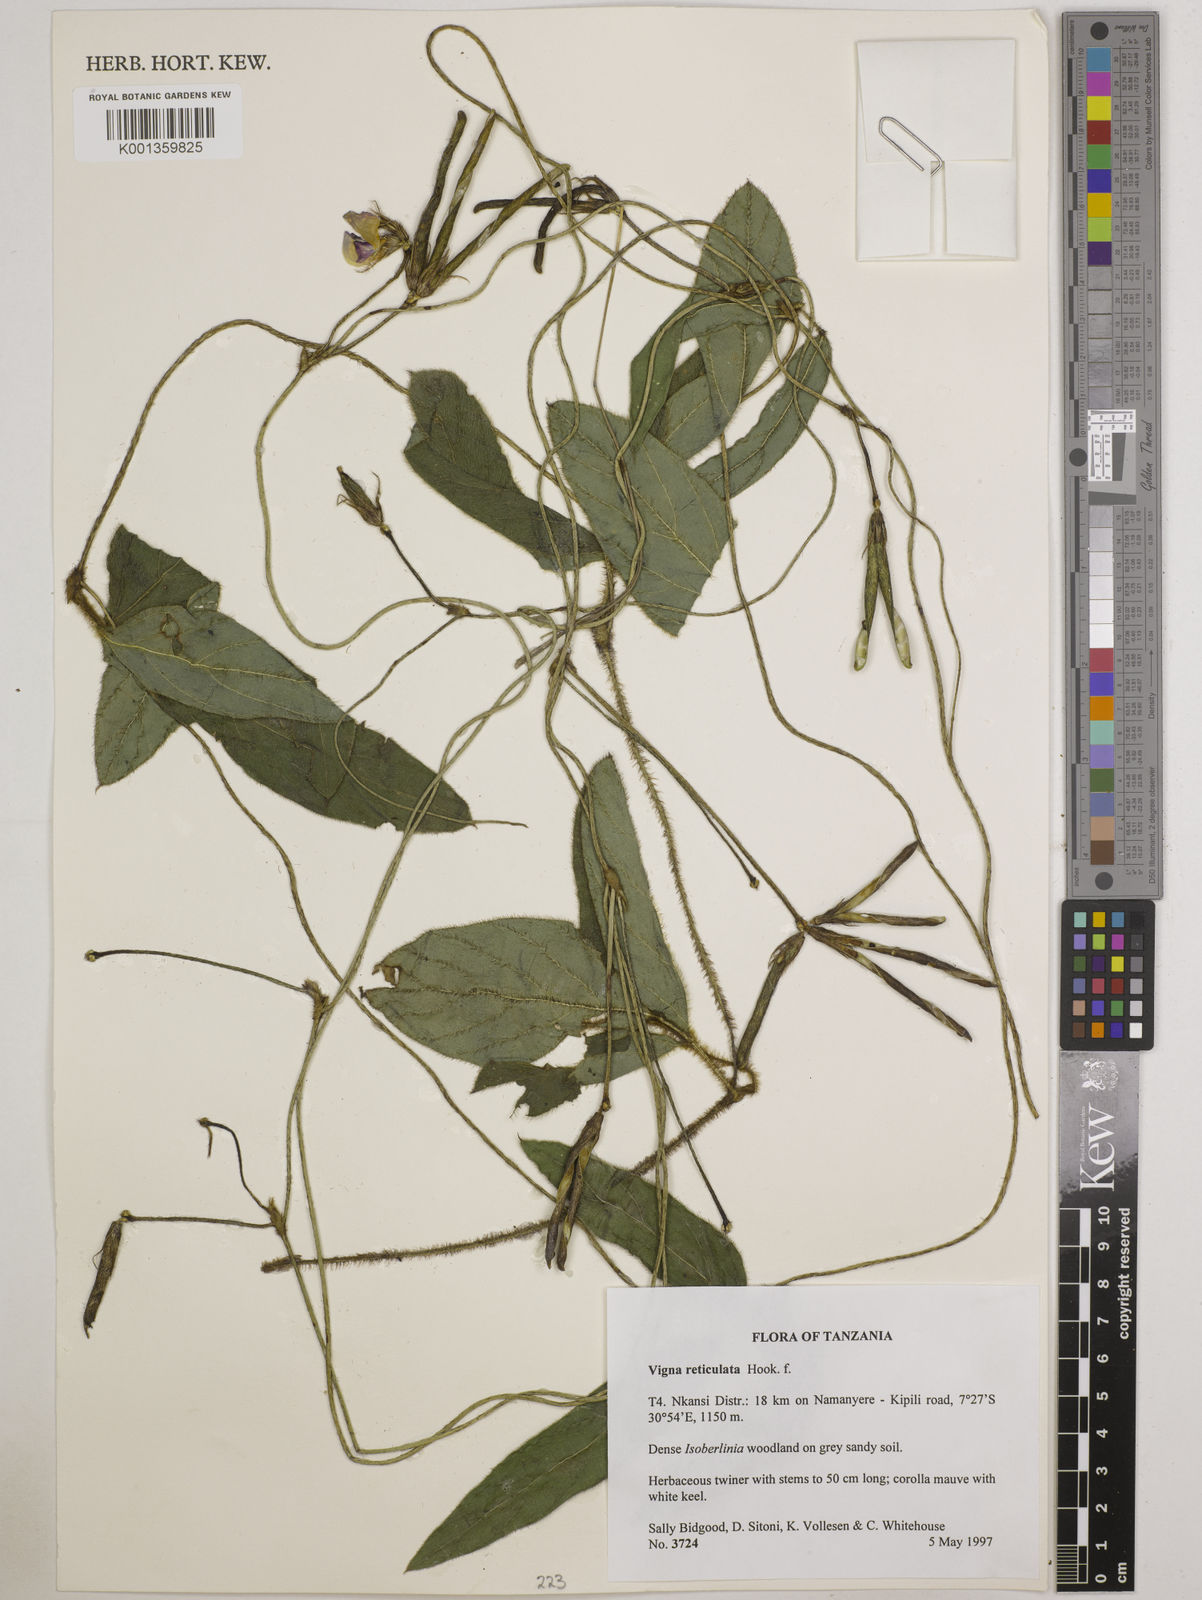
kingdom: Plantae
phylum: Tracheophyta
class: Magnoliopsida
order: Fabales
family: Fabaceae
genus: Vigna
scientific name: Vigna reticulata
